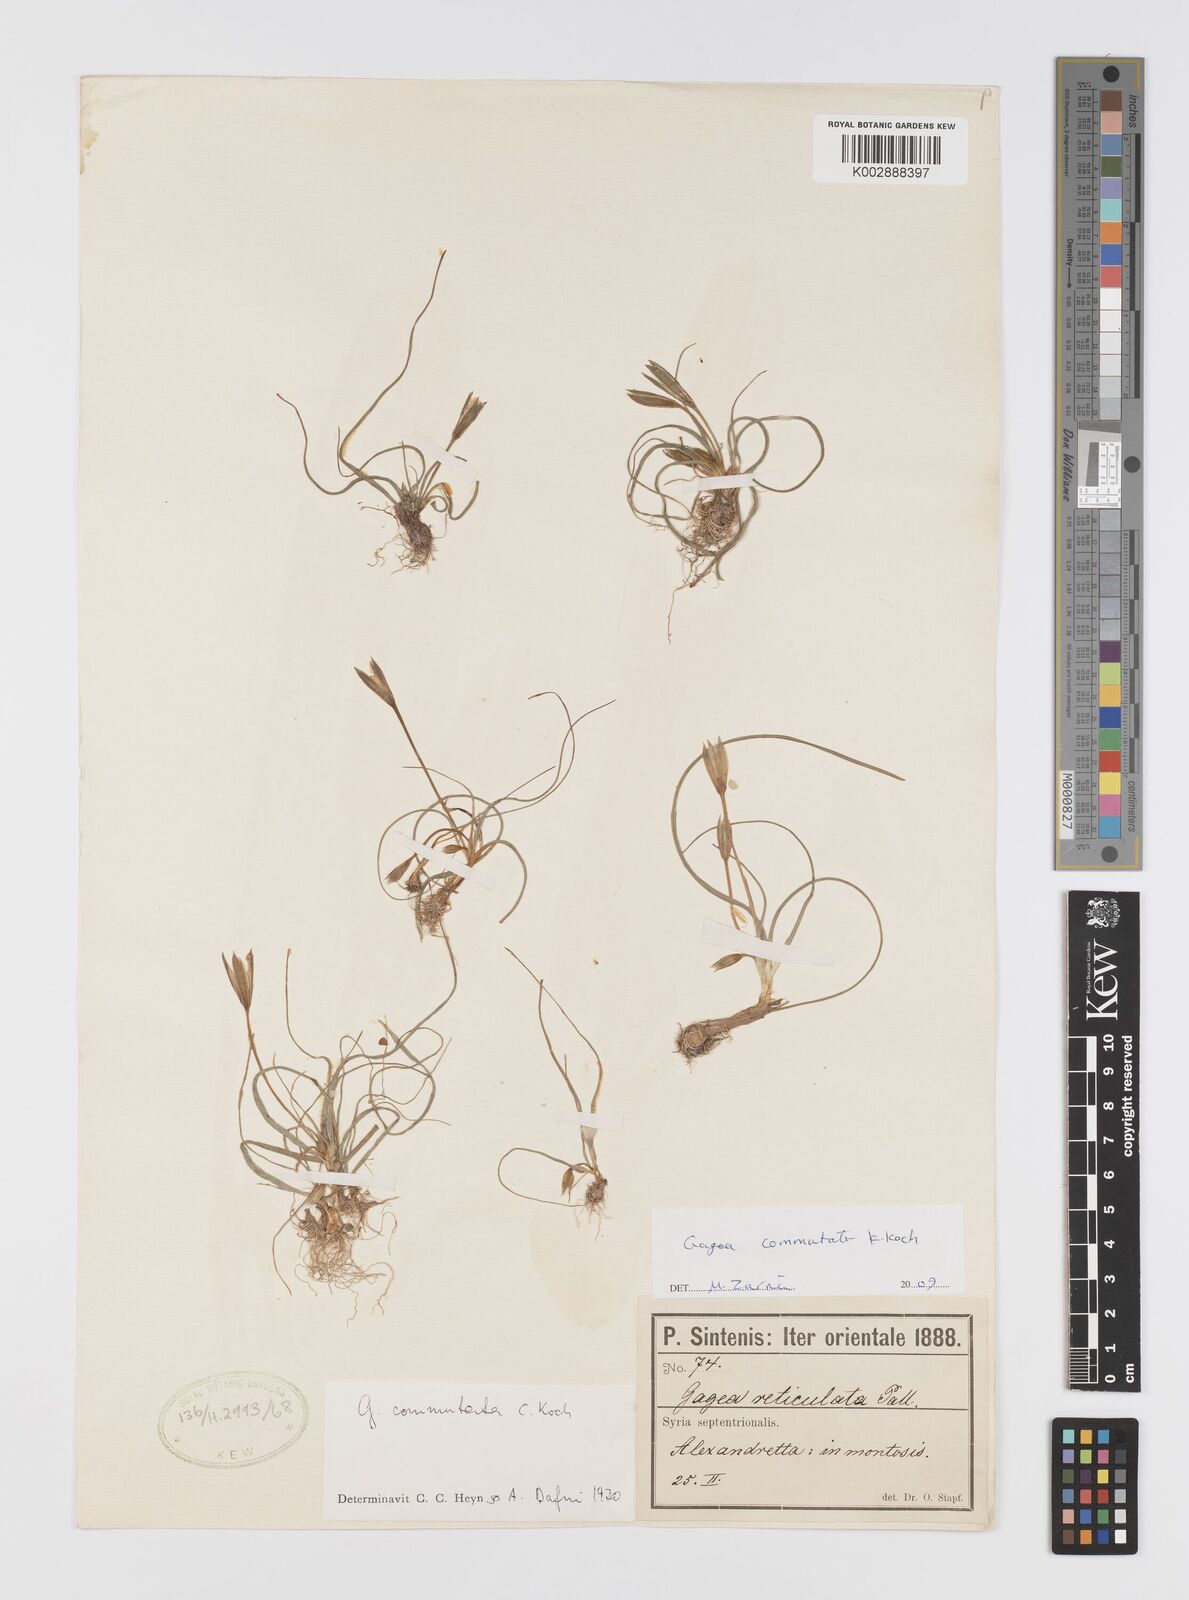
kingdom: Plantae
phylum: Tracheophyta
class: Liliopsida
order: Liliales
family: Liliaceae
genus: Gagea
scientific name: Gagea commutata
